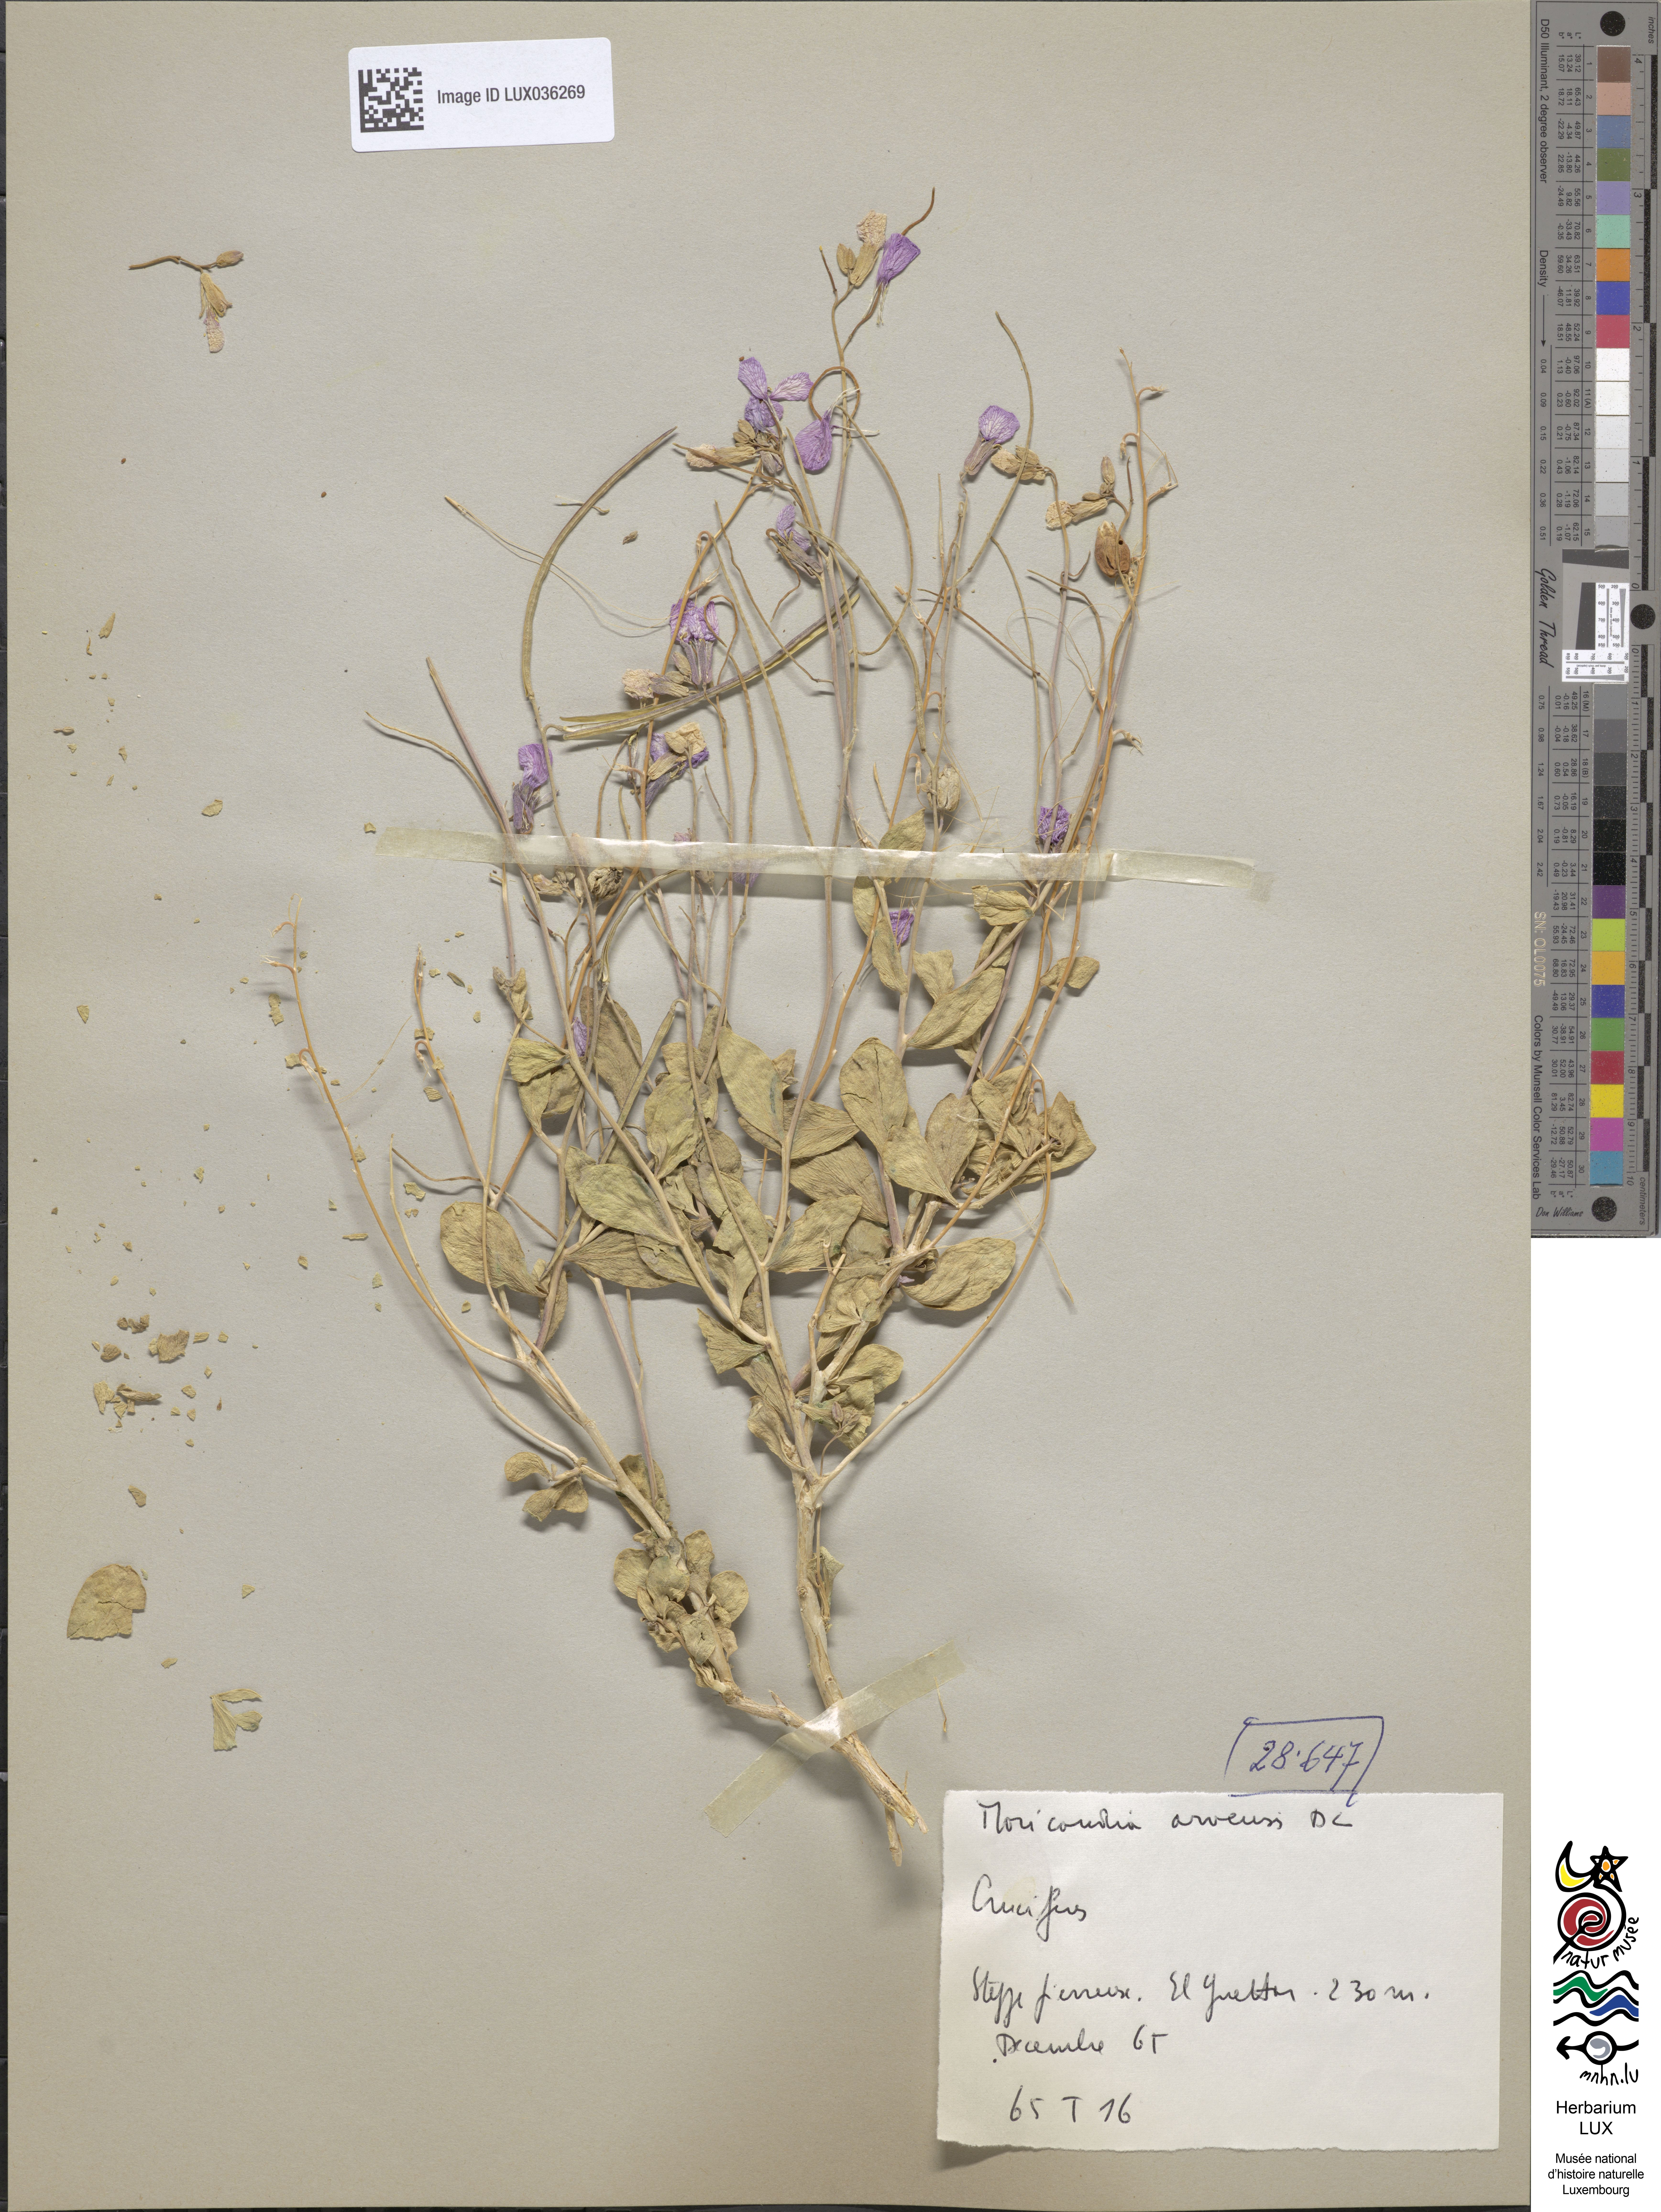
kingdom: Plantae
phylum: Tracheophyta
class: Magnoliopsida
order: Brassicales
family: Brassicaceae
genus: Moricandia
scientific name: Moricandia arvensis
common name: Purple mistress
